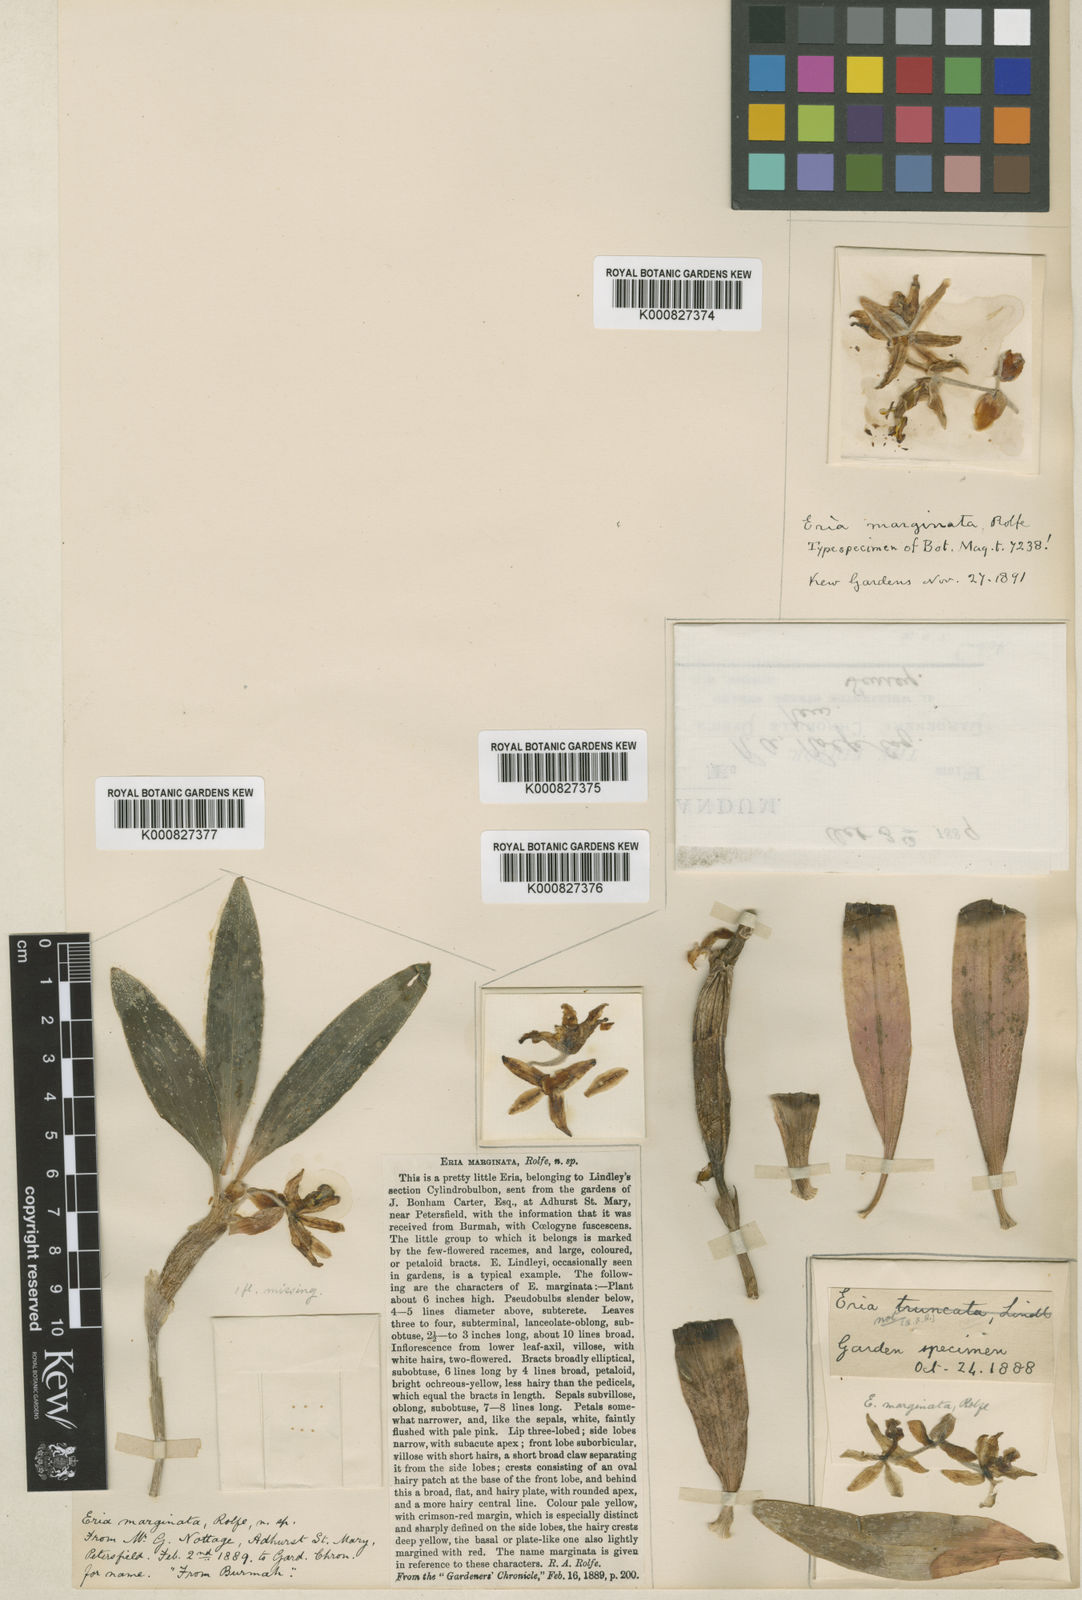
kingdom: Plantae
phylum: Tracheophyta
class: Liliopsida
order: Asparagales
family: Orchidaceae
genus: Cylindrolobus
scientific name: Cylindrolobus marginatus
